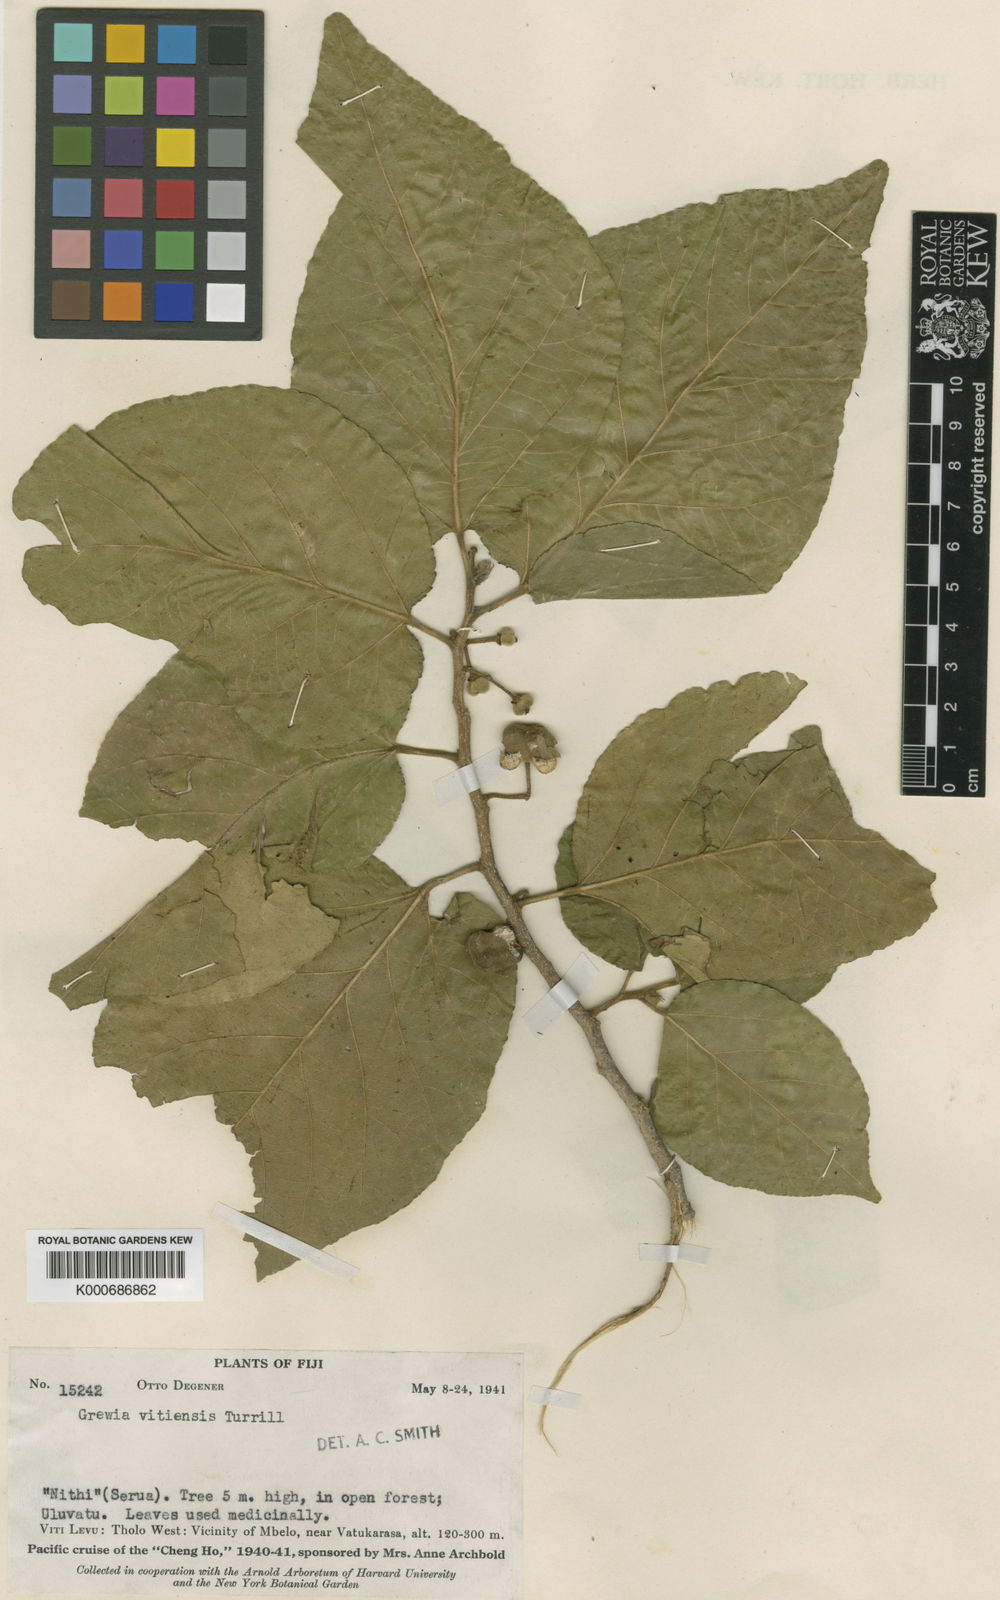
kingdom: Plantae
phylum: Tracheophyta
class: Magnoliopsida
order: Malvales
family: Malvaceae
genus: Grewia
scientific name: Grewia vitiensis
